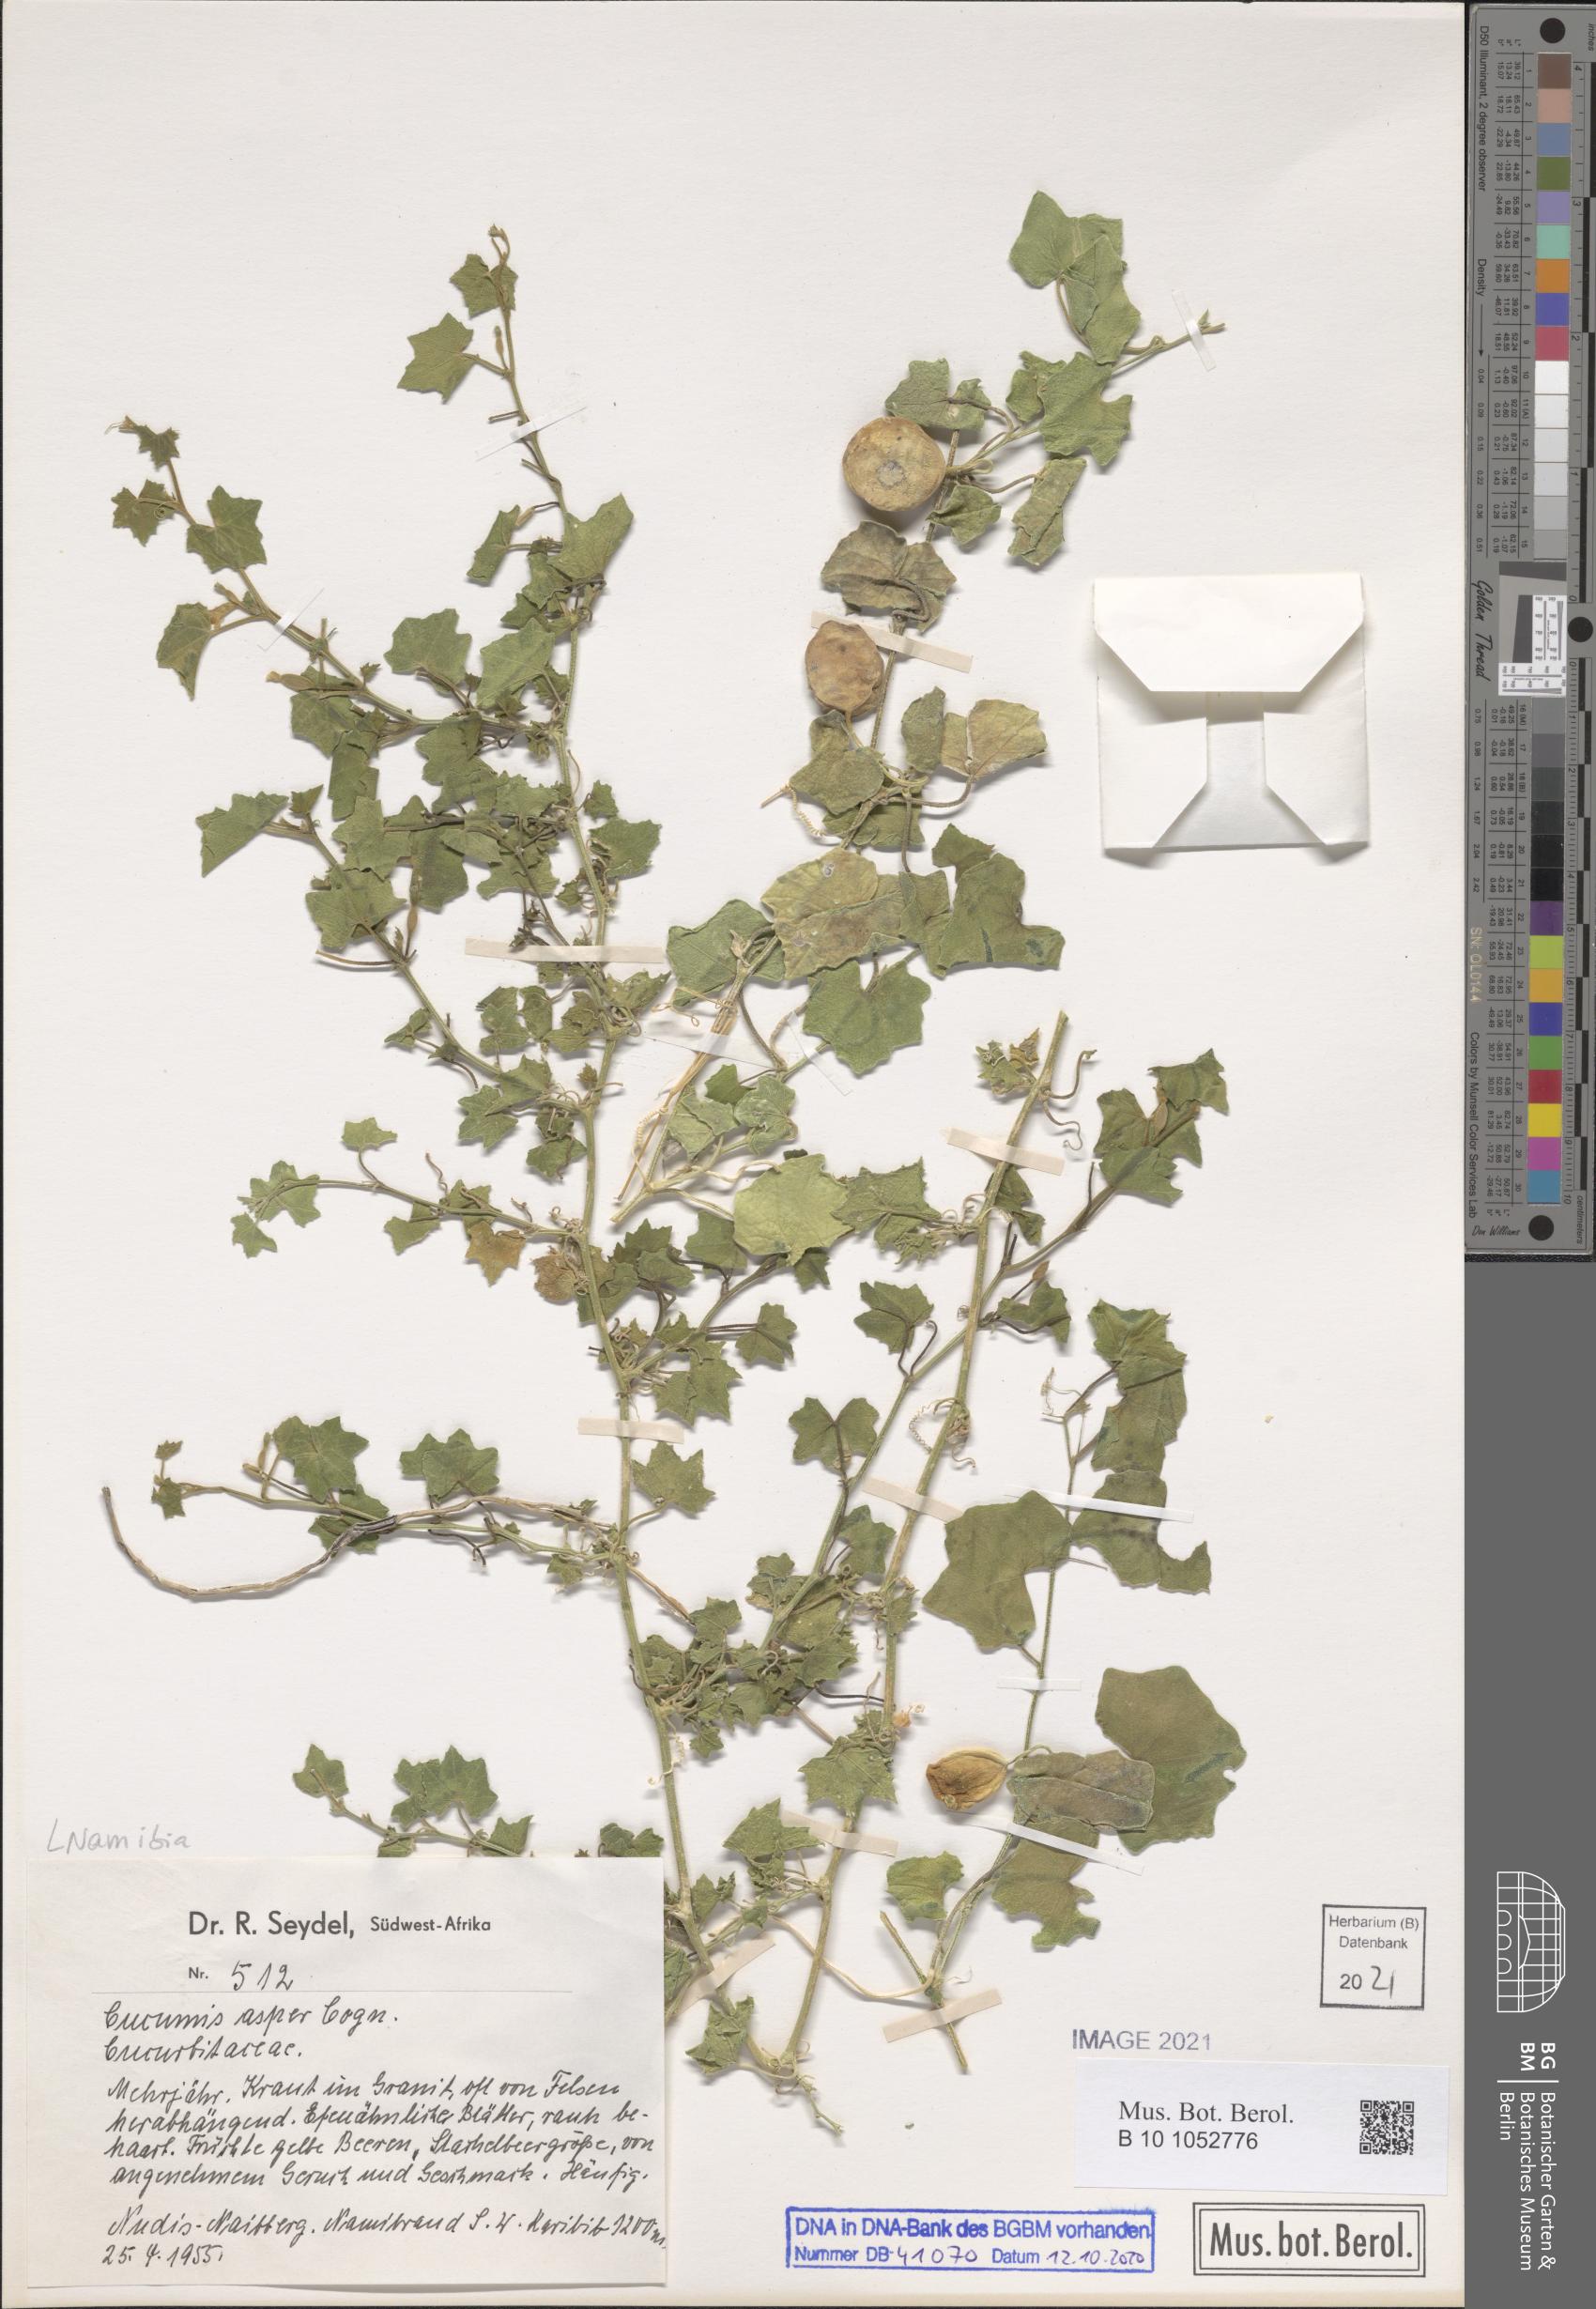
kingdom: Plantae
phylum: Tracheophyta
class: Magnoliopsida
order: Cucurbitales
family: Cucurbitaceae
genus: Cucumis
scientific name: Cucumis asper
